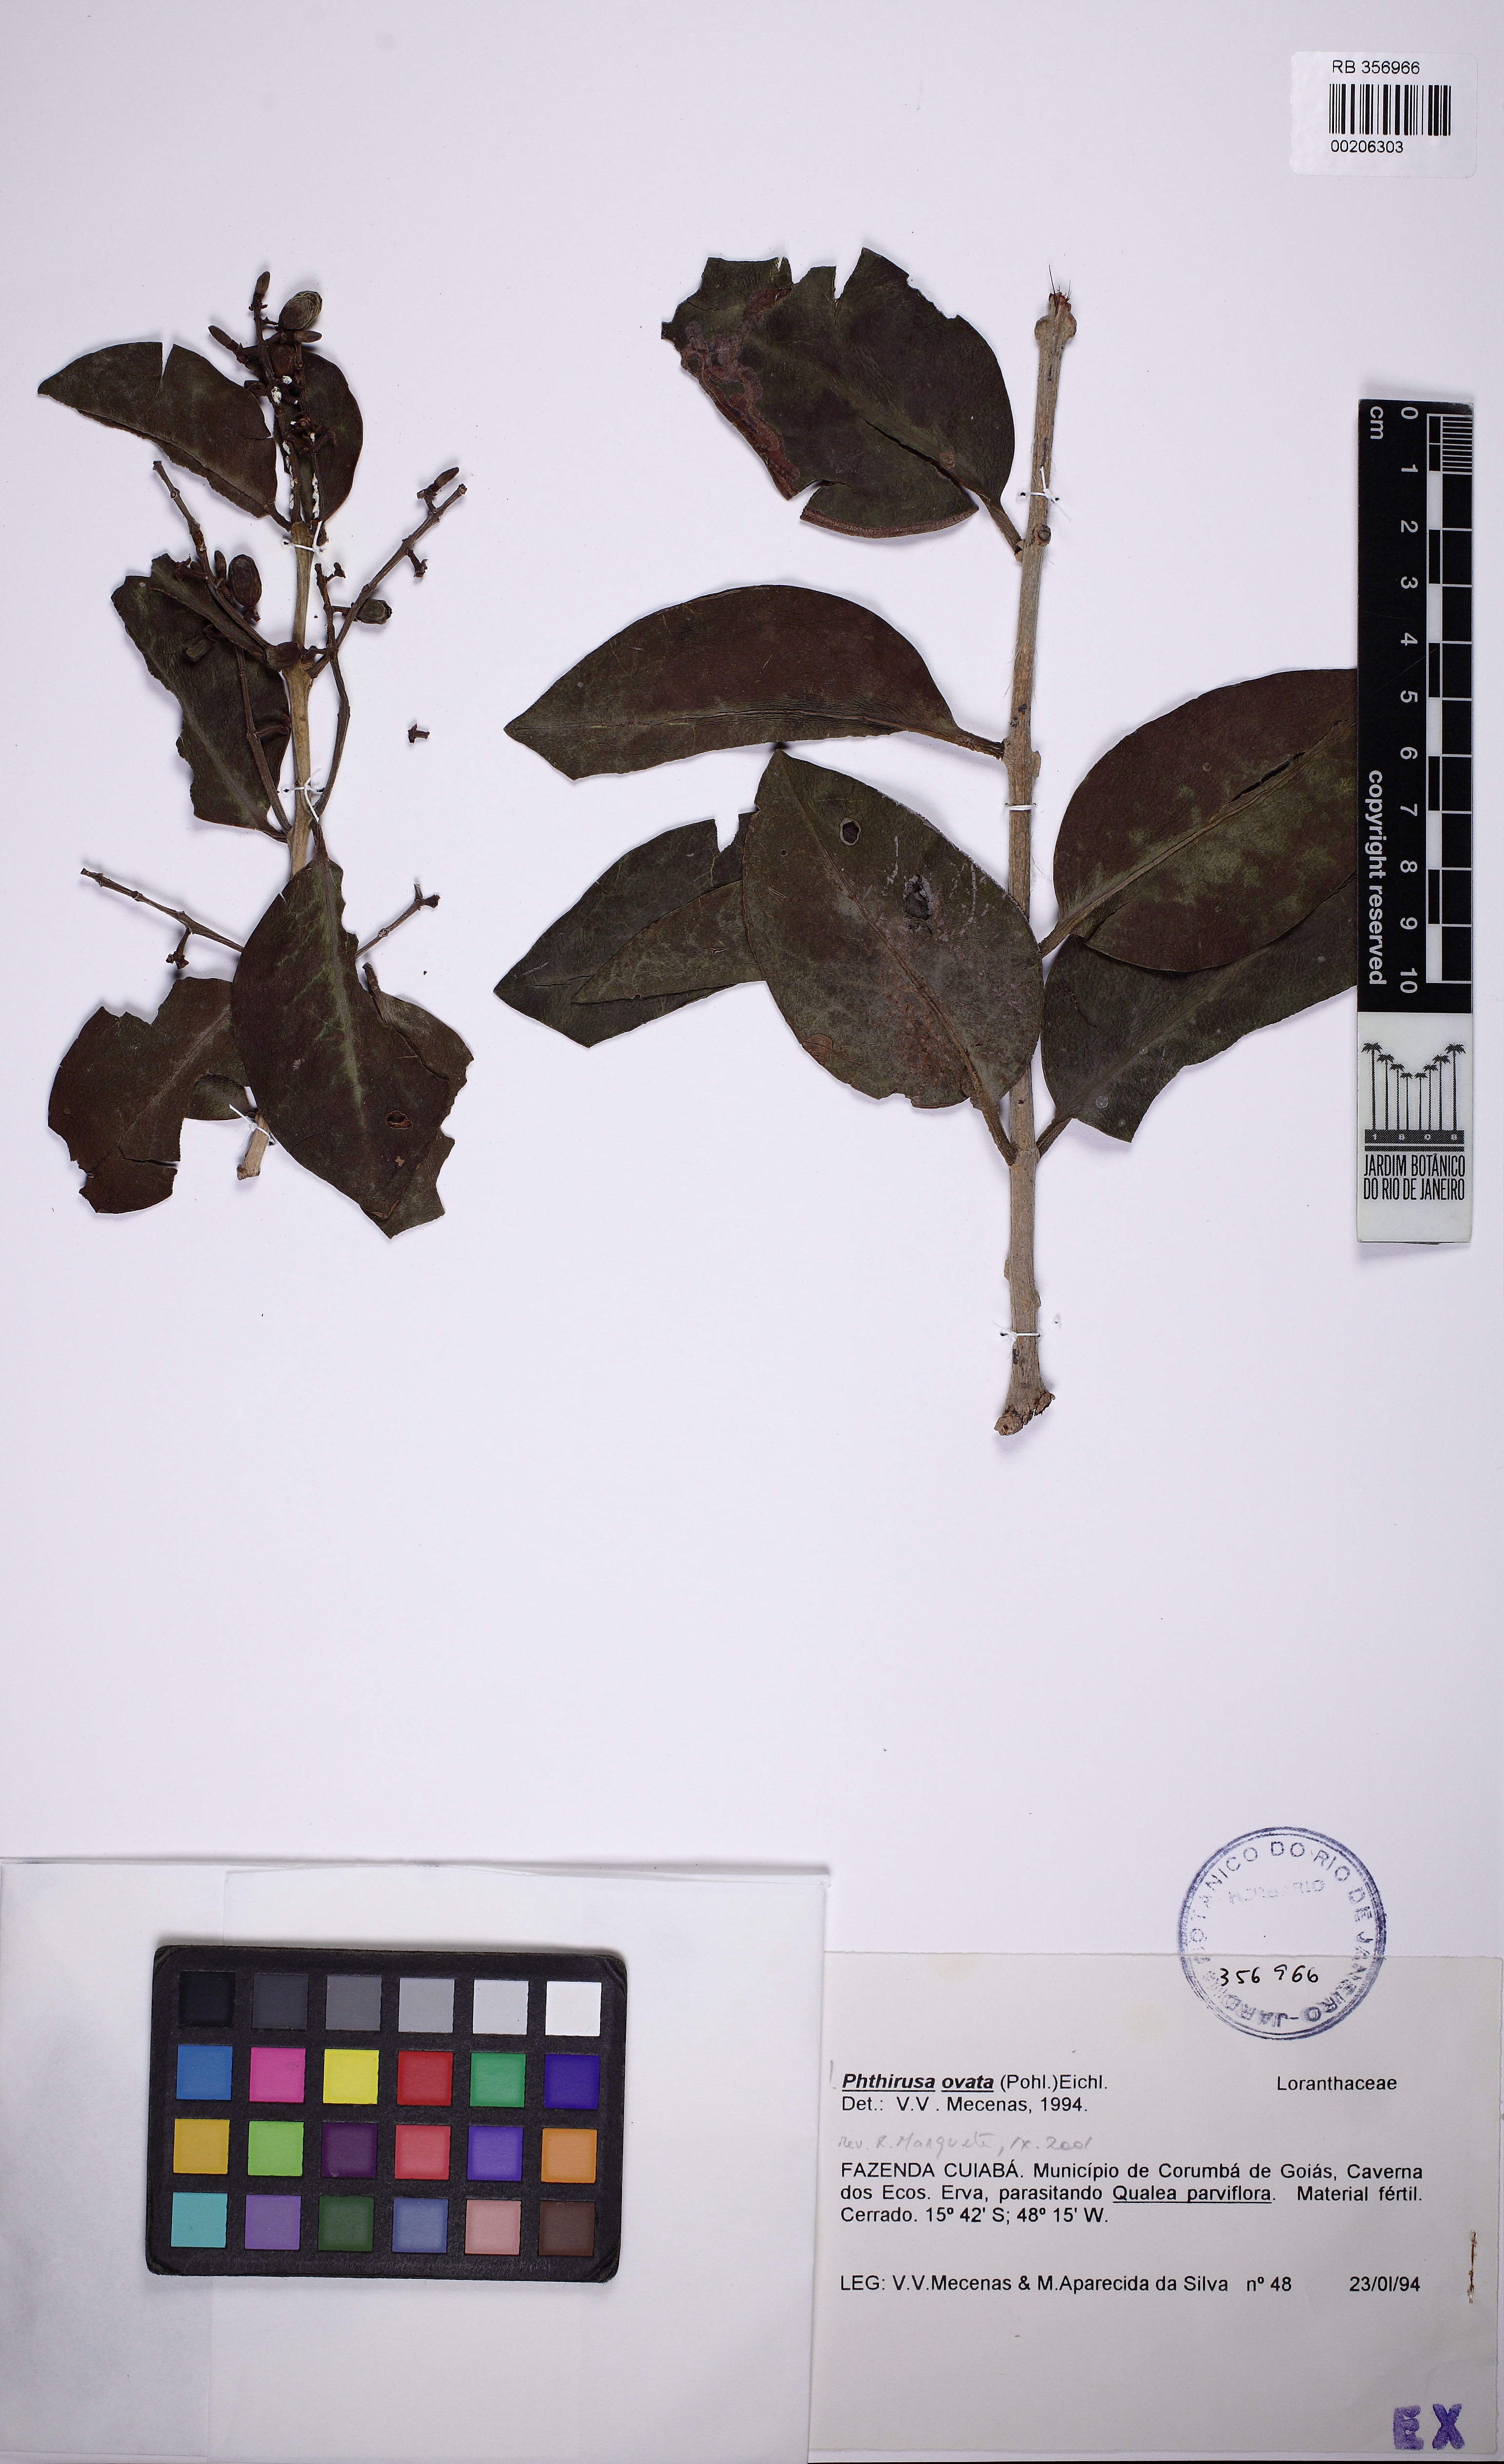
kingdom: Plantae
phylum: Tracheophyta
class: Magnoliopsida
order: Santalales
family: Loranthaceae
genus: Passovia
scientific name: Passovia ovata
